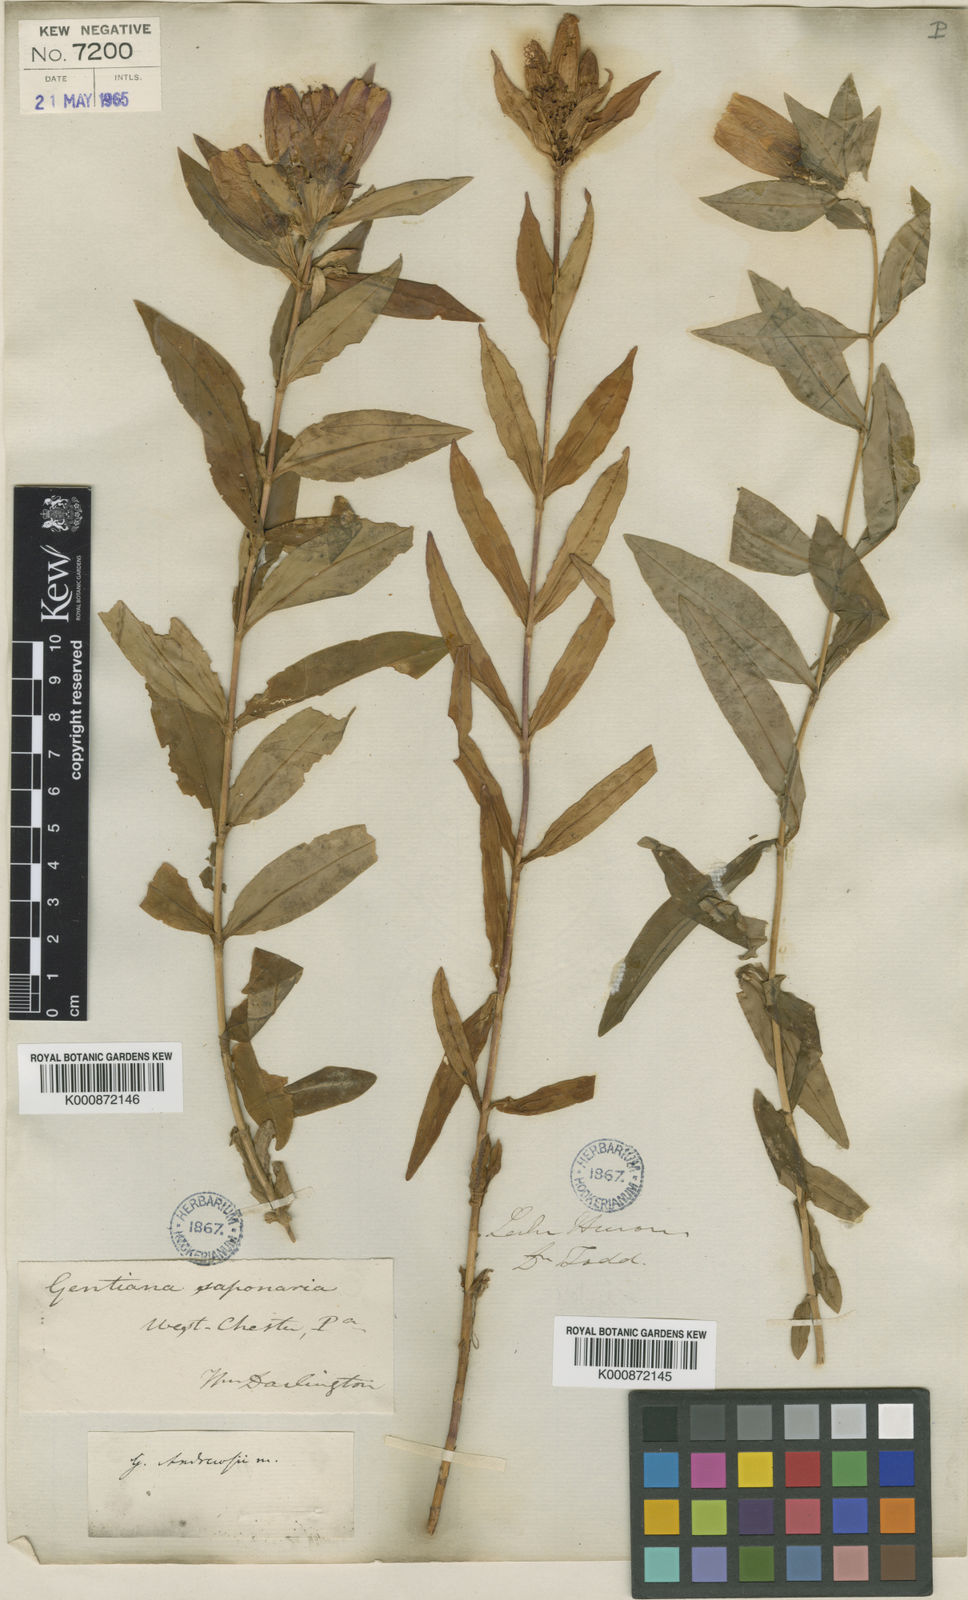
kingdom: Plantae
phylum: Tracheophyta
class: Magnoliopsida
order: Gentianales
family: Gentianaceae
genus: Gentiana
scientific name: Gentiana andrewsii
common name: Bottle gentian
